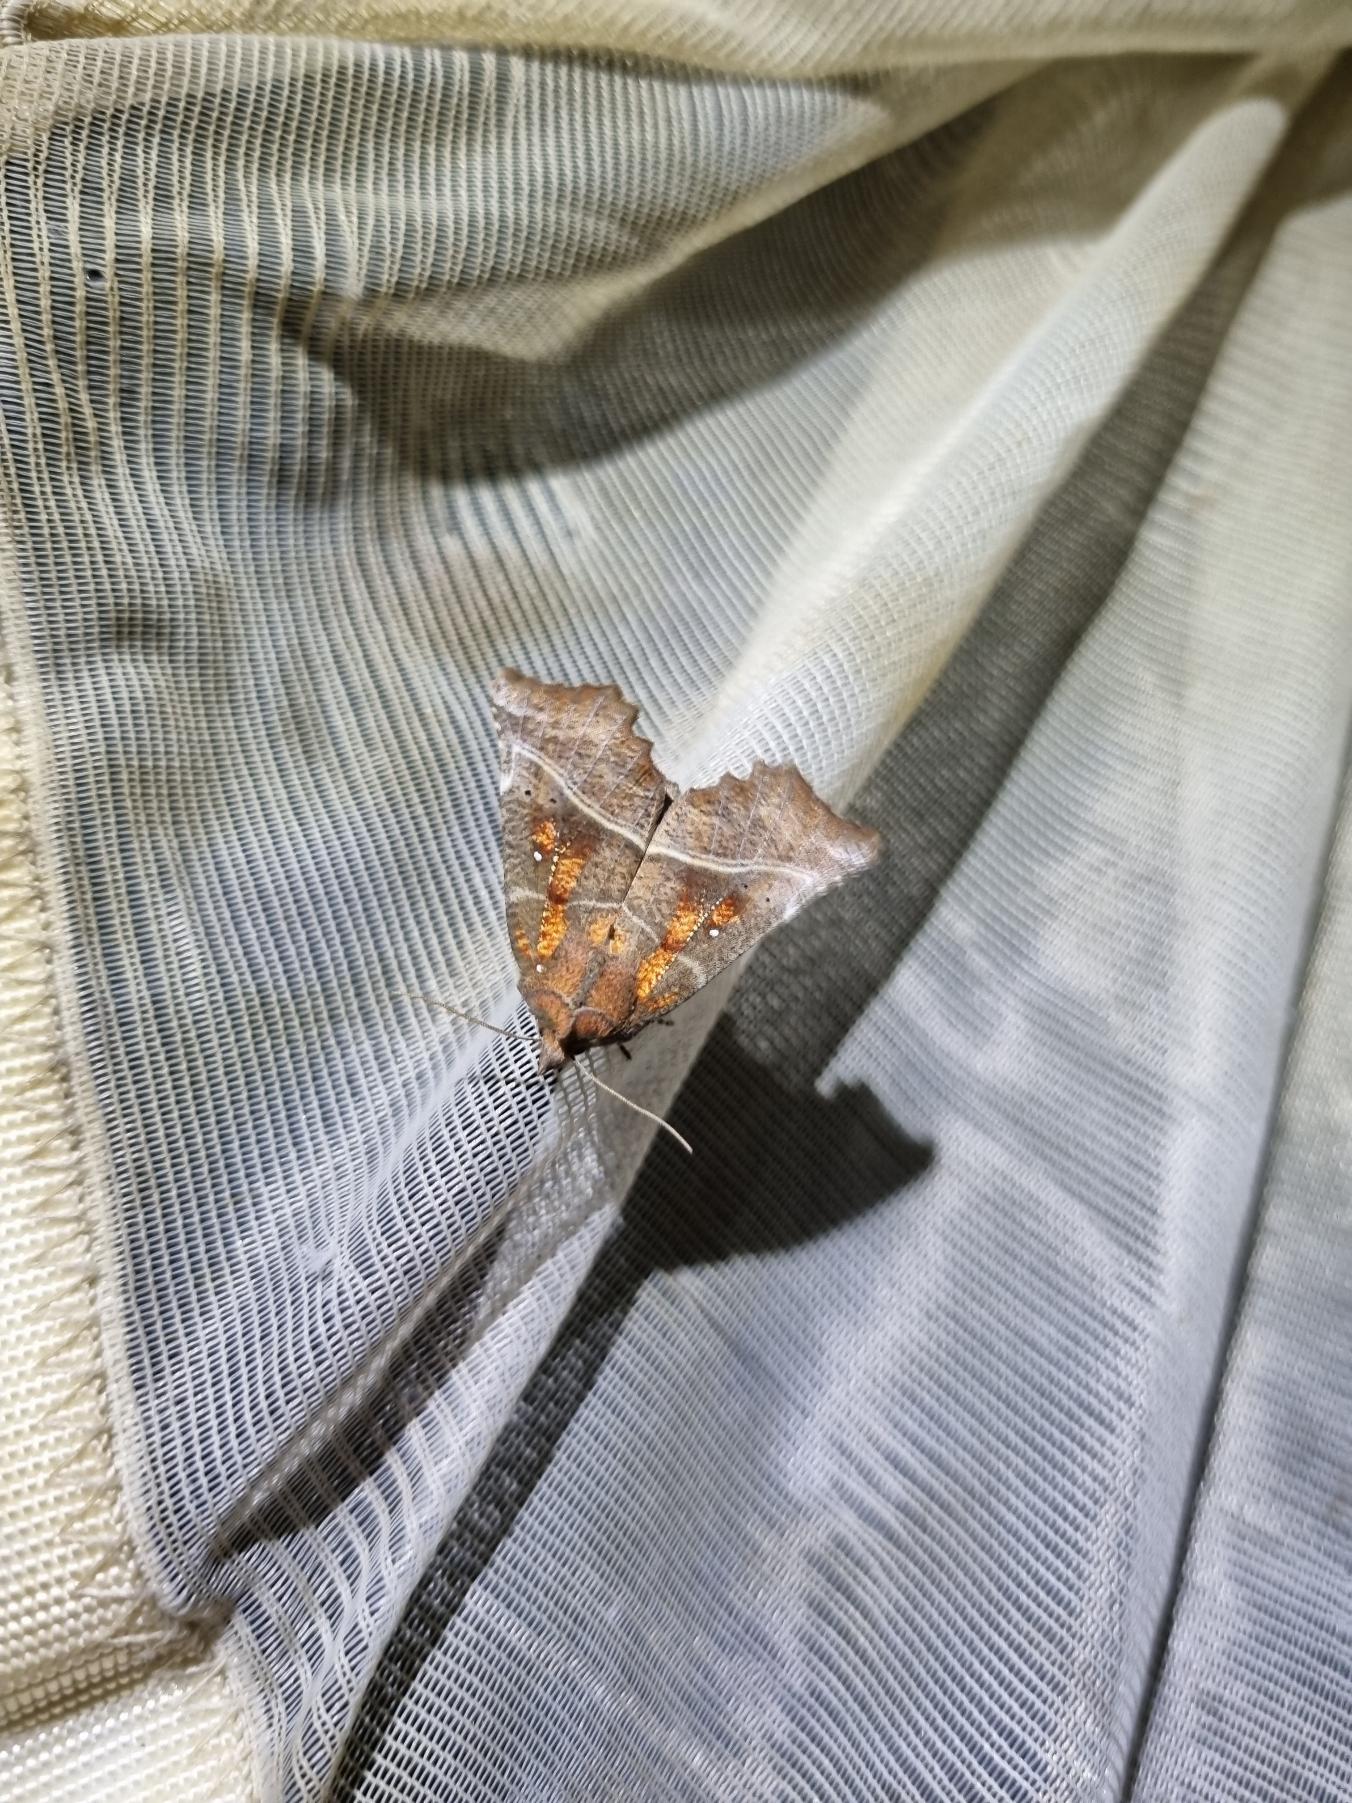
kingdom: Animalia
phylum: Arthropoda
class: Insecta
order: Lepidoptera
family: Erebidae
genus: Scoliopteryx
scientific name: Scoliopteryx libatrix
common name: Husmoderugle
